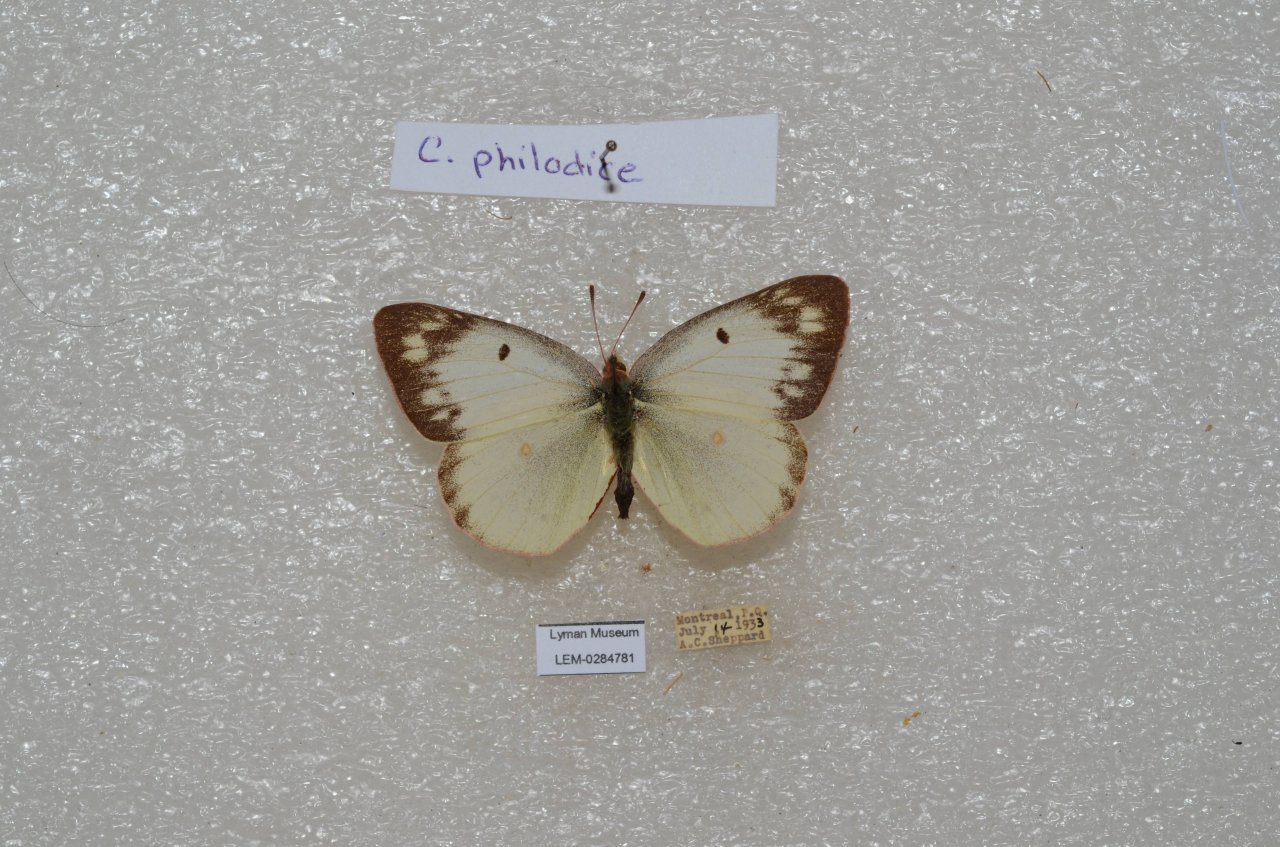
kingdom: Animalia
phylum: Arthropoda
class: Insecta
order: Lepidoptera
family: Pieridae
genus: Colias
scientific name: Colias philodice
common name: Clouded Sulphur
